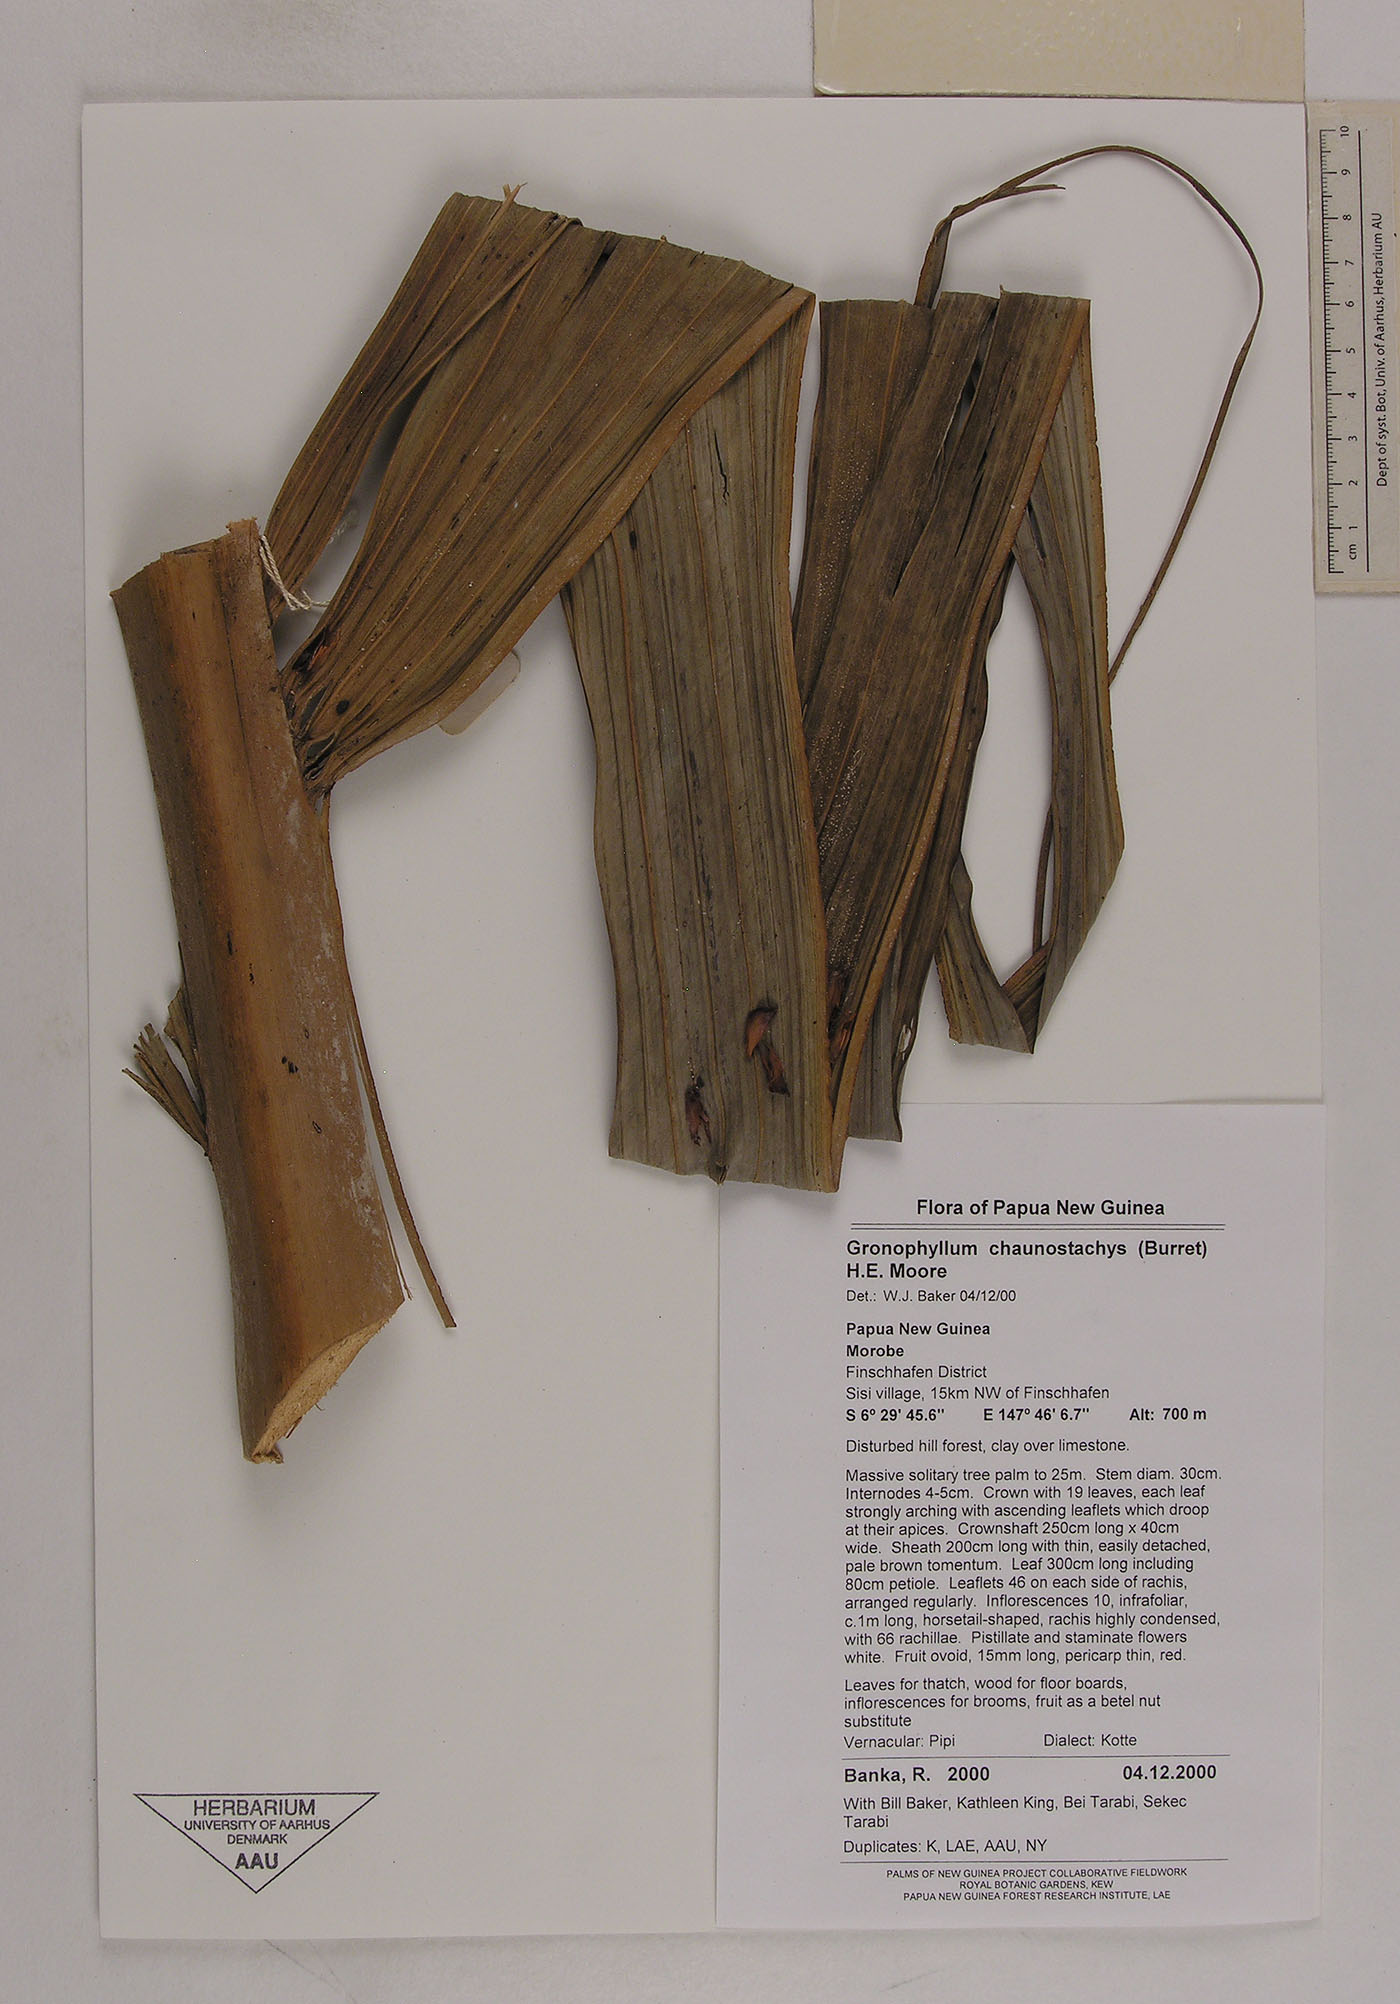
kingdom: Plantae
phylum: Tracheophyta
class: Liliopsida
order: Arecales
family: Arecaceae
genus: Hydriastele
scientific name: Hydriastele ledermanniana
